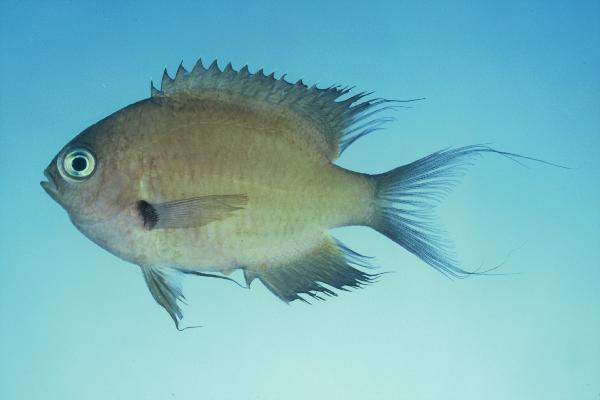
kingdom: Animalia
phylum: Chordata
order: Perciformes
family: Pomacentridae
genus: Chromis
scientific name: Chromis agilis
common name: Bronze reef chromis
